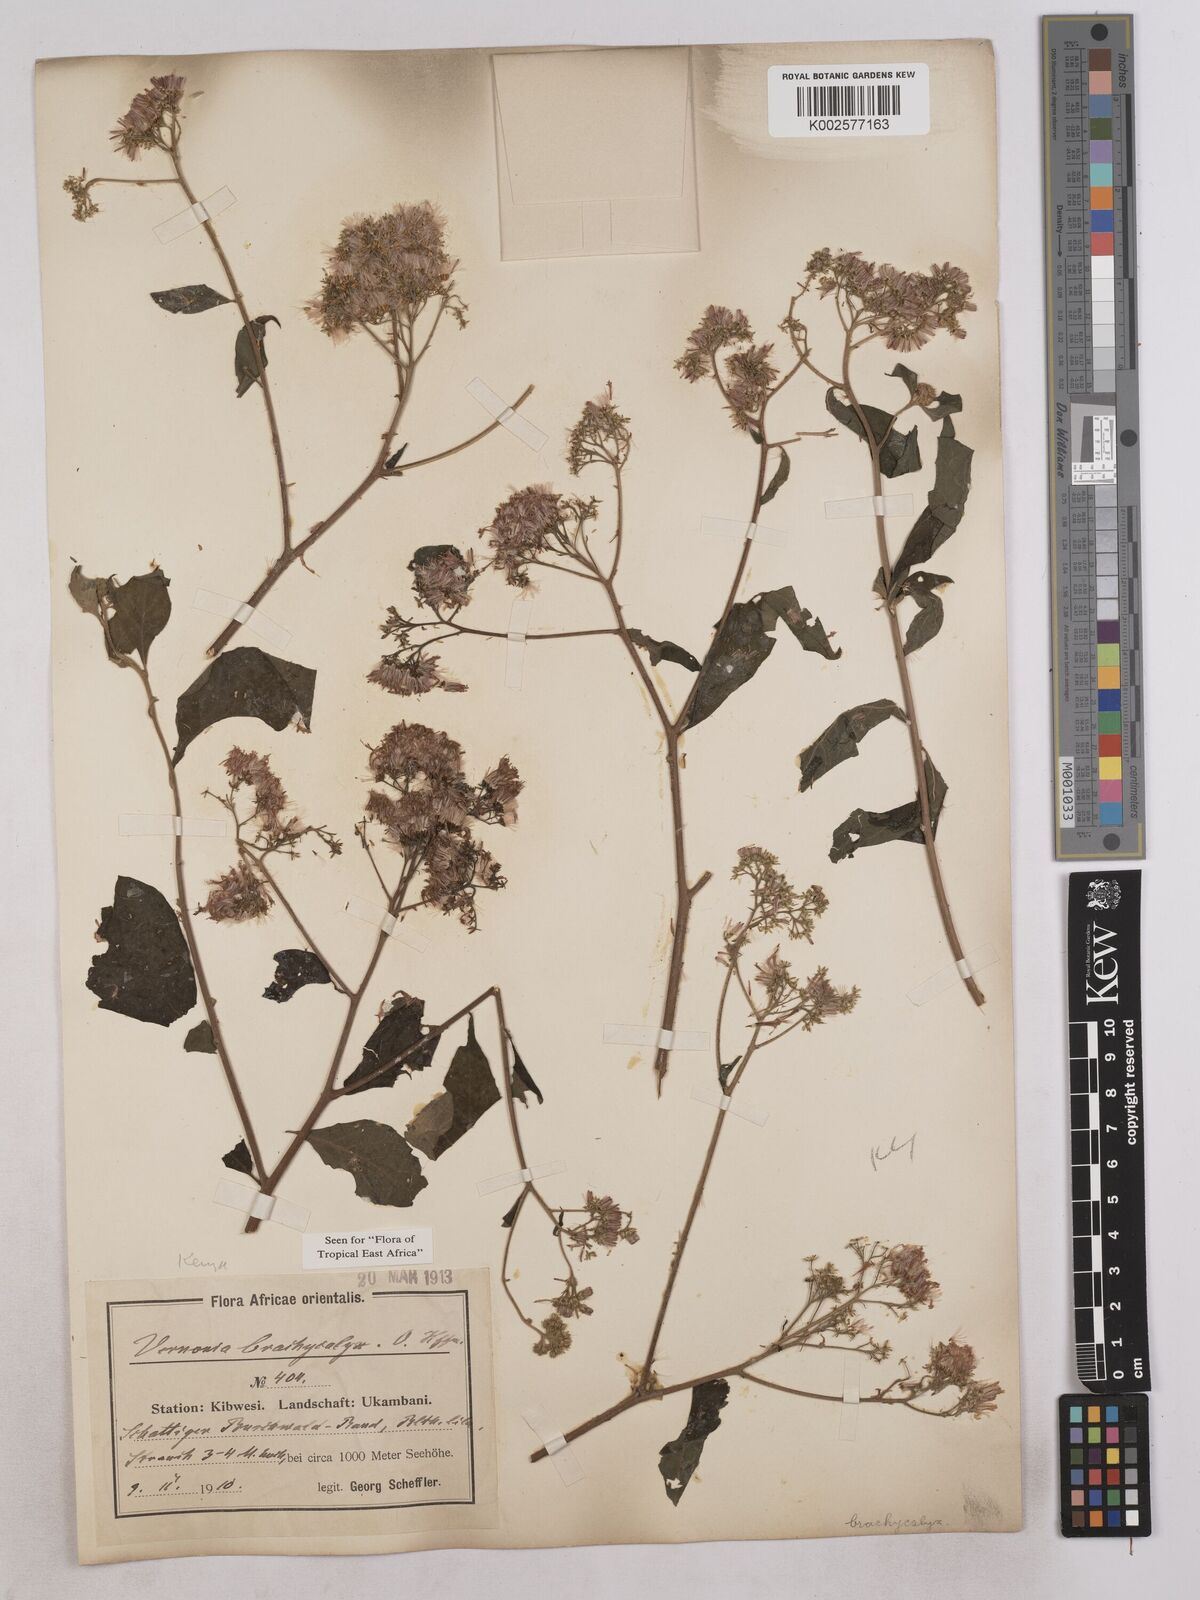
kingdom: Plantae
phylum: Tracheophyta
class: Magnoliopsida
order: Asterales
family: Asteraceae
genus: Hoffmannanthus
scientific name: Hoffmannanthus abbotianus
